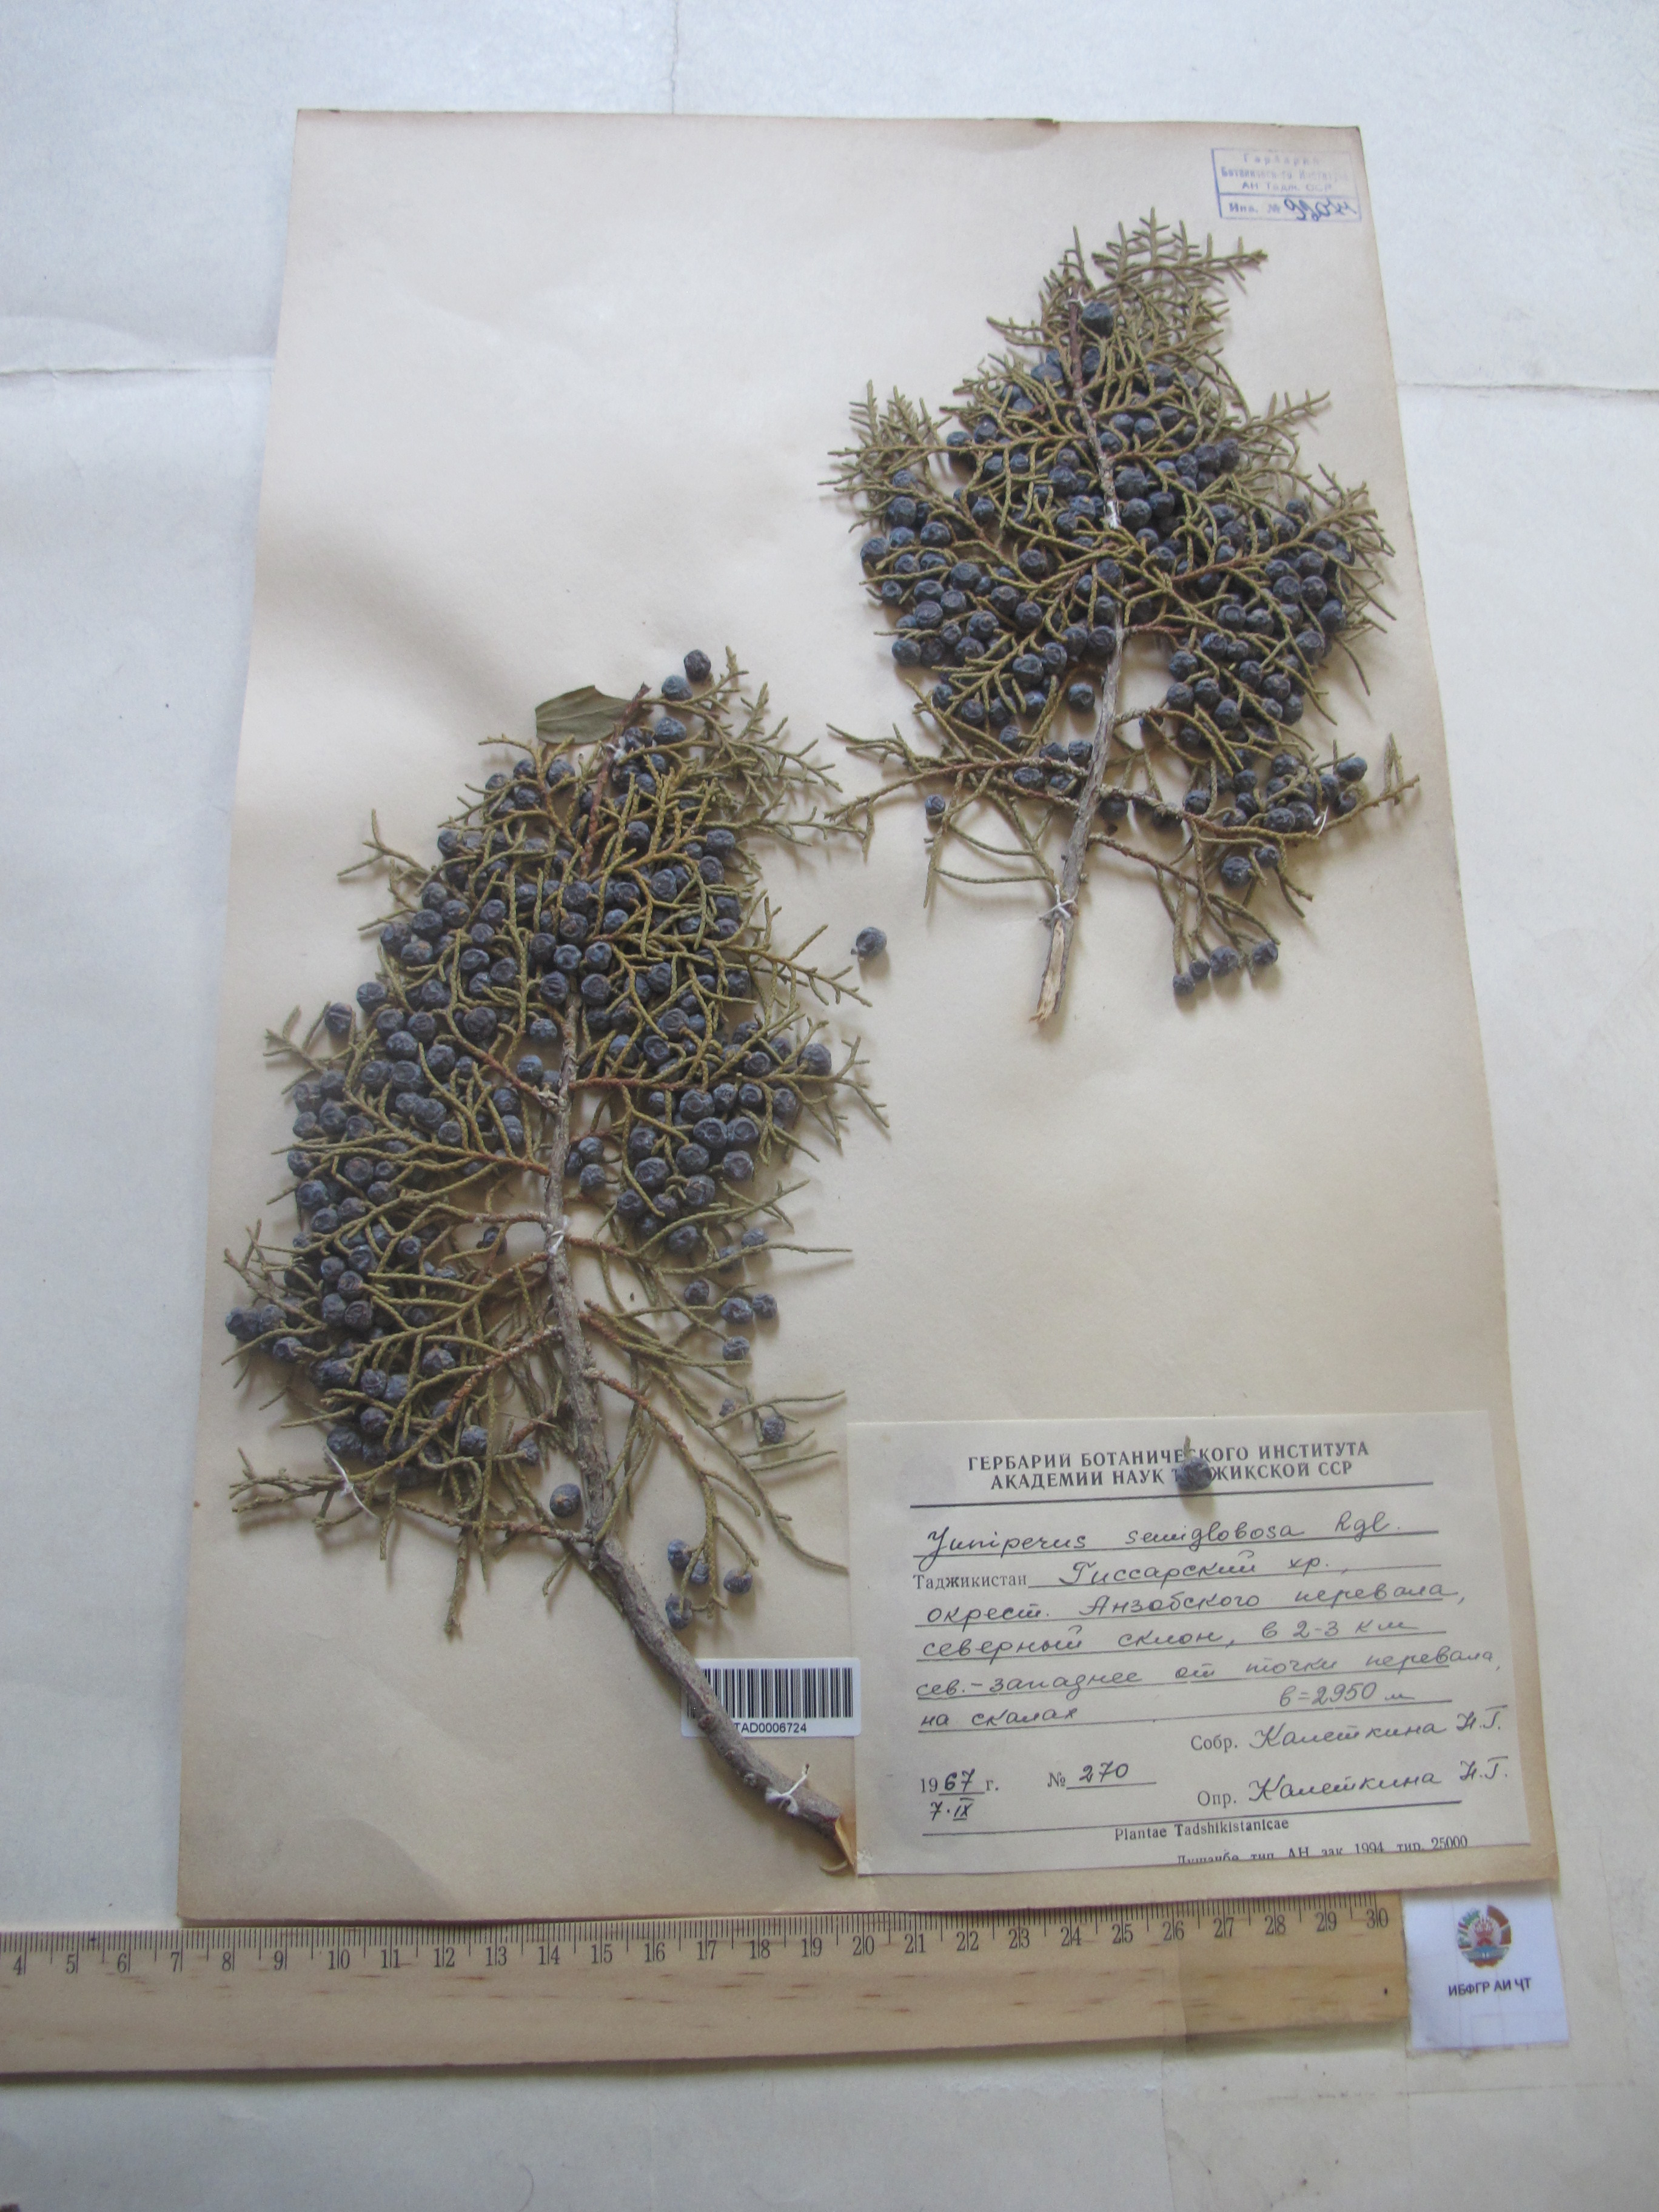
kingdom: Plantae
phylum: Tracheophyta
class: Pinopsida
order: Pinales
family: Cupressaceae
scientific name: Cupressaceae
